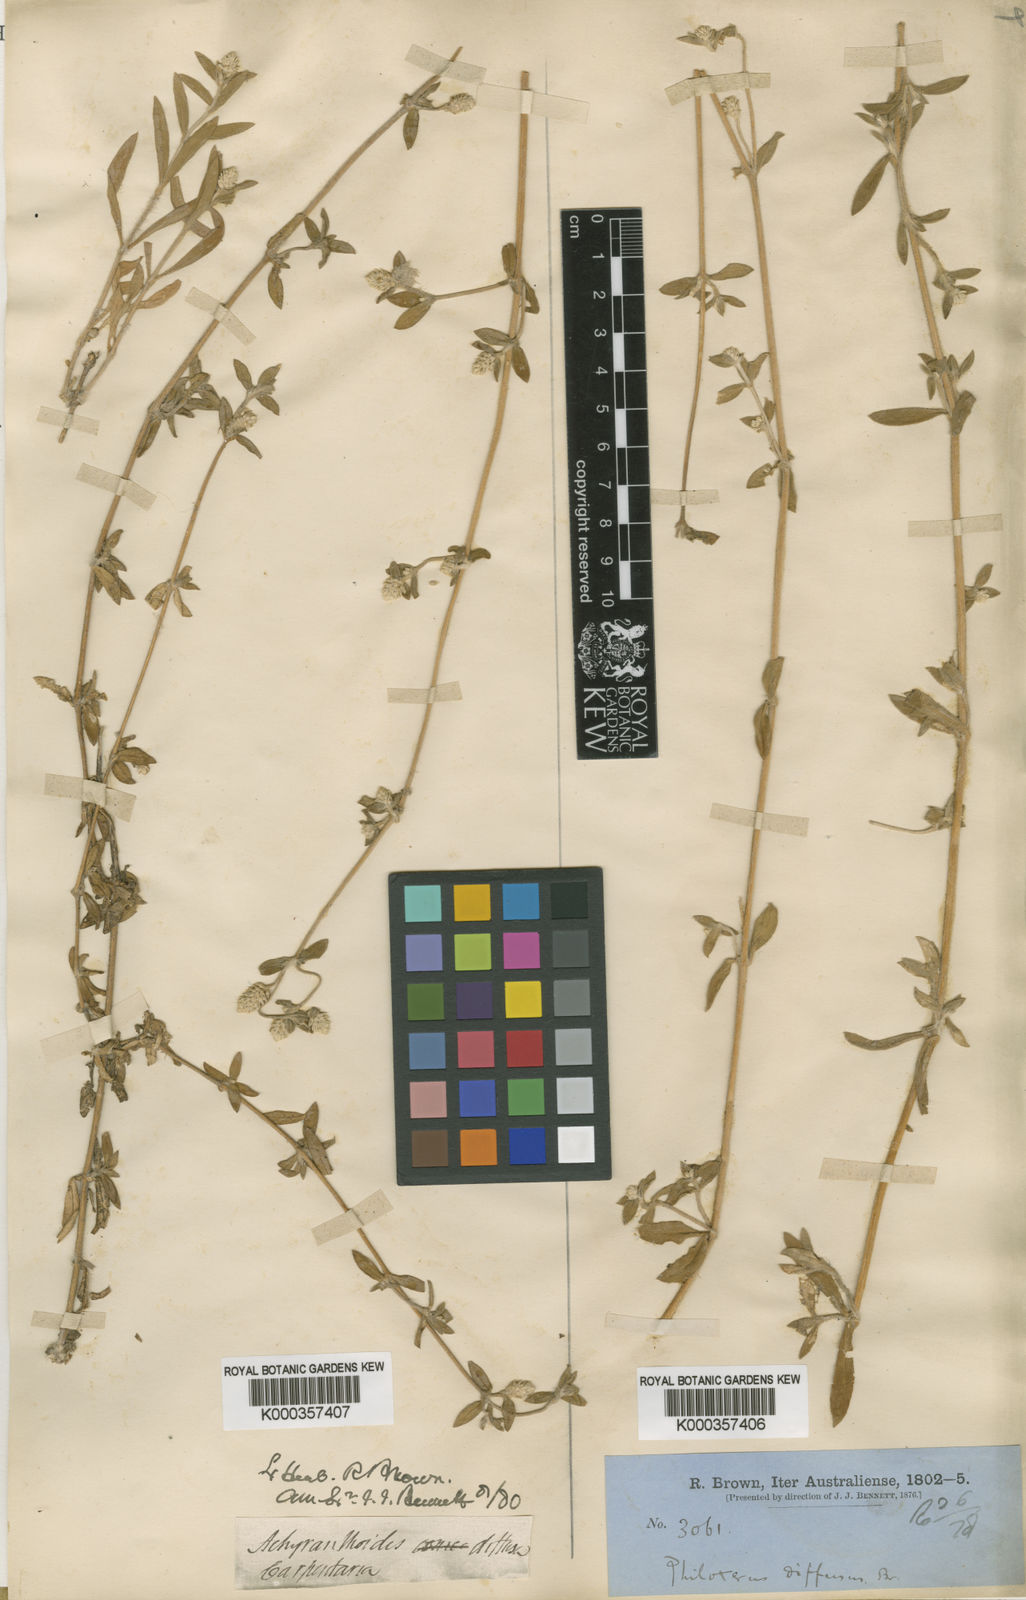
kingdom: Plantae
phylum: Tracheophyta
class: Magnoliopsida
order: Caryophyllales
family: Amaranthaceae
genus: Gomphrena
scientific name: Gomphrena
